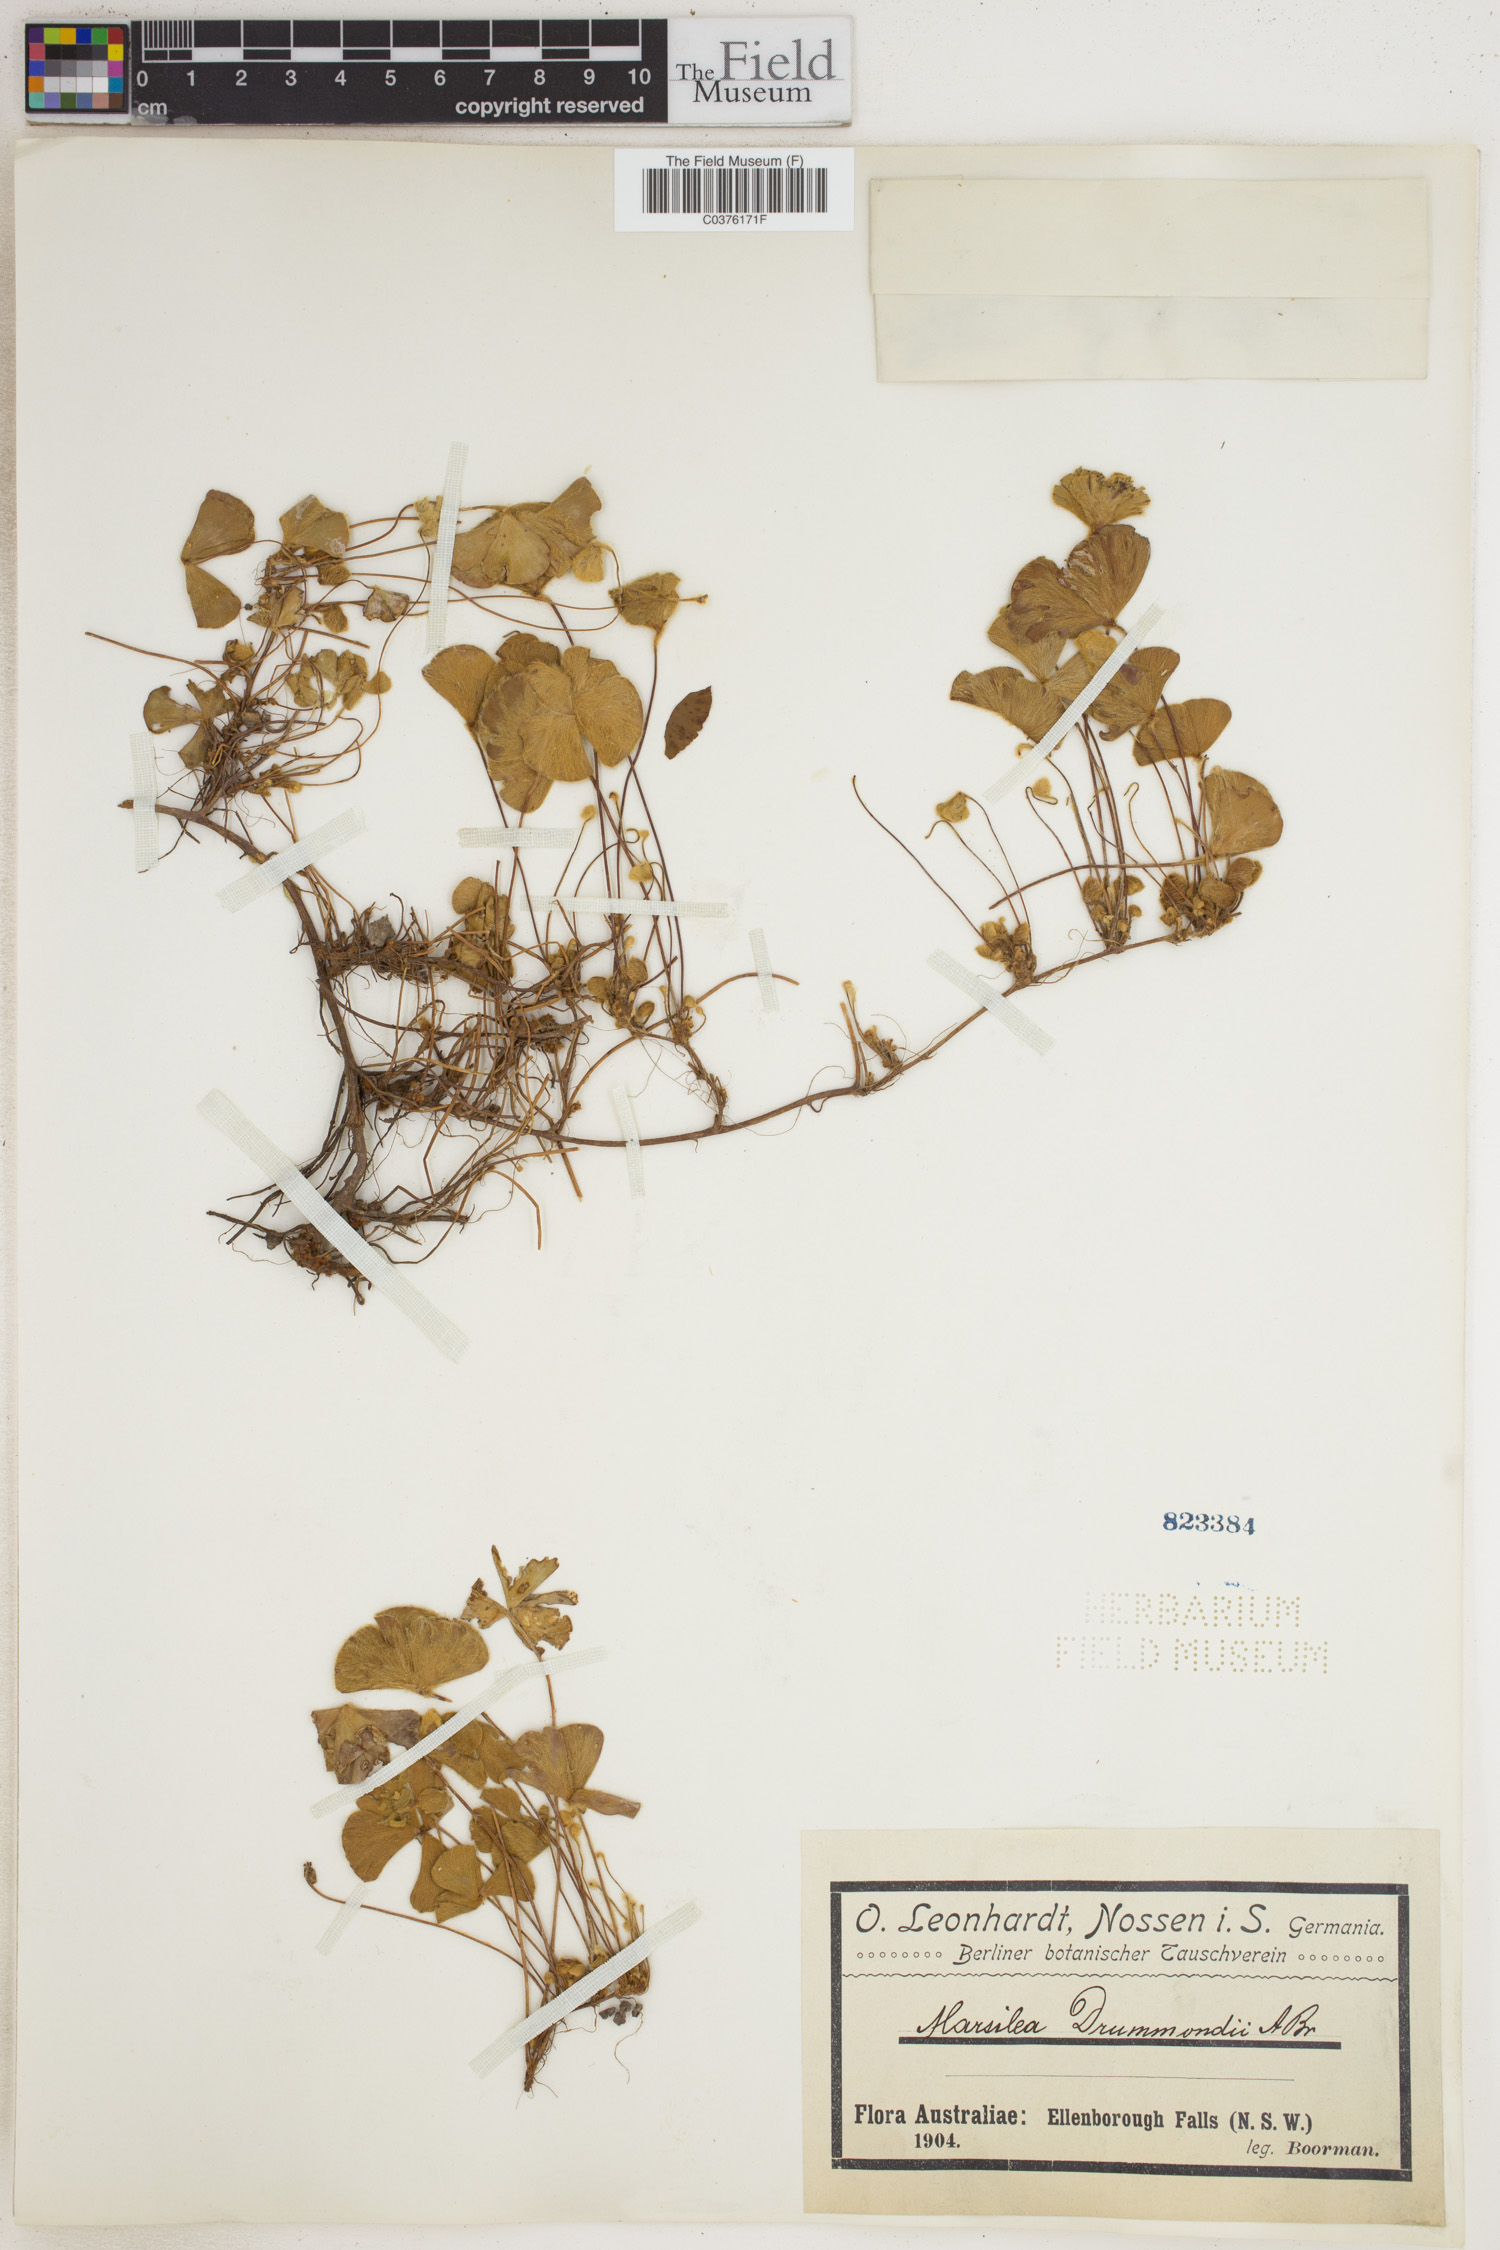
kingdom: Plantae
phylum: Tracheophyta
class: Polypodiopsida
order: Salviniales
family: Marsileaceae
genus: Marsilea
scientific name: Marsilea drummondii
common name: Nardoo
